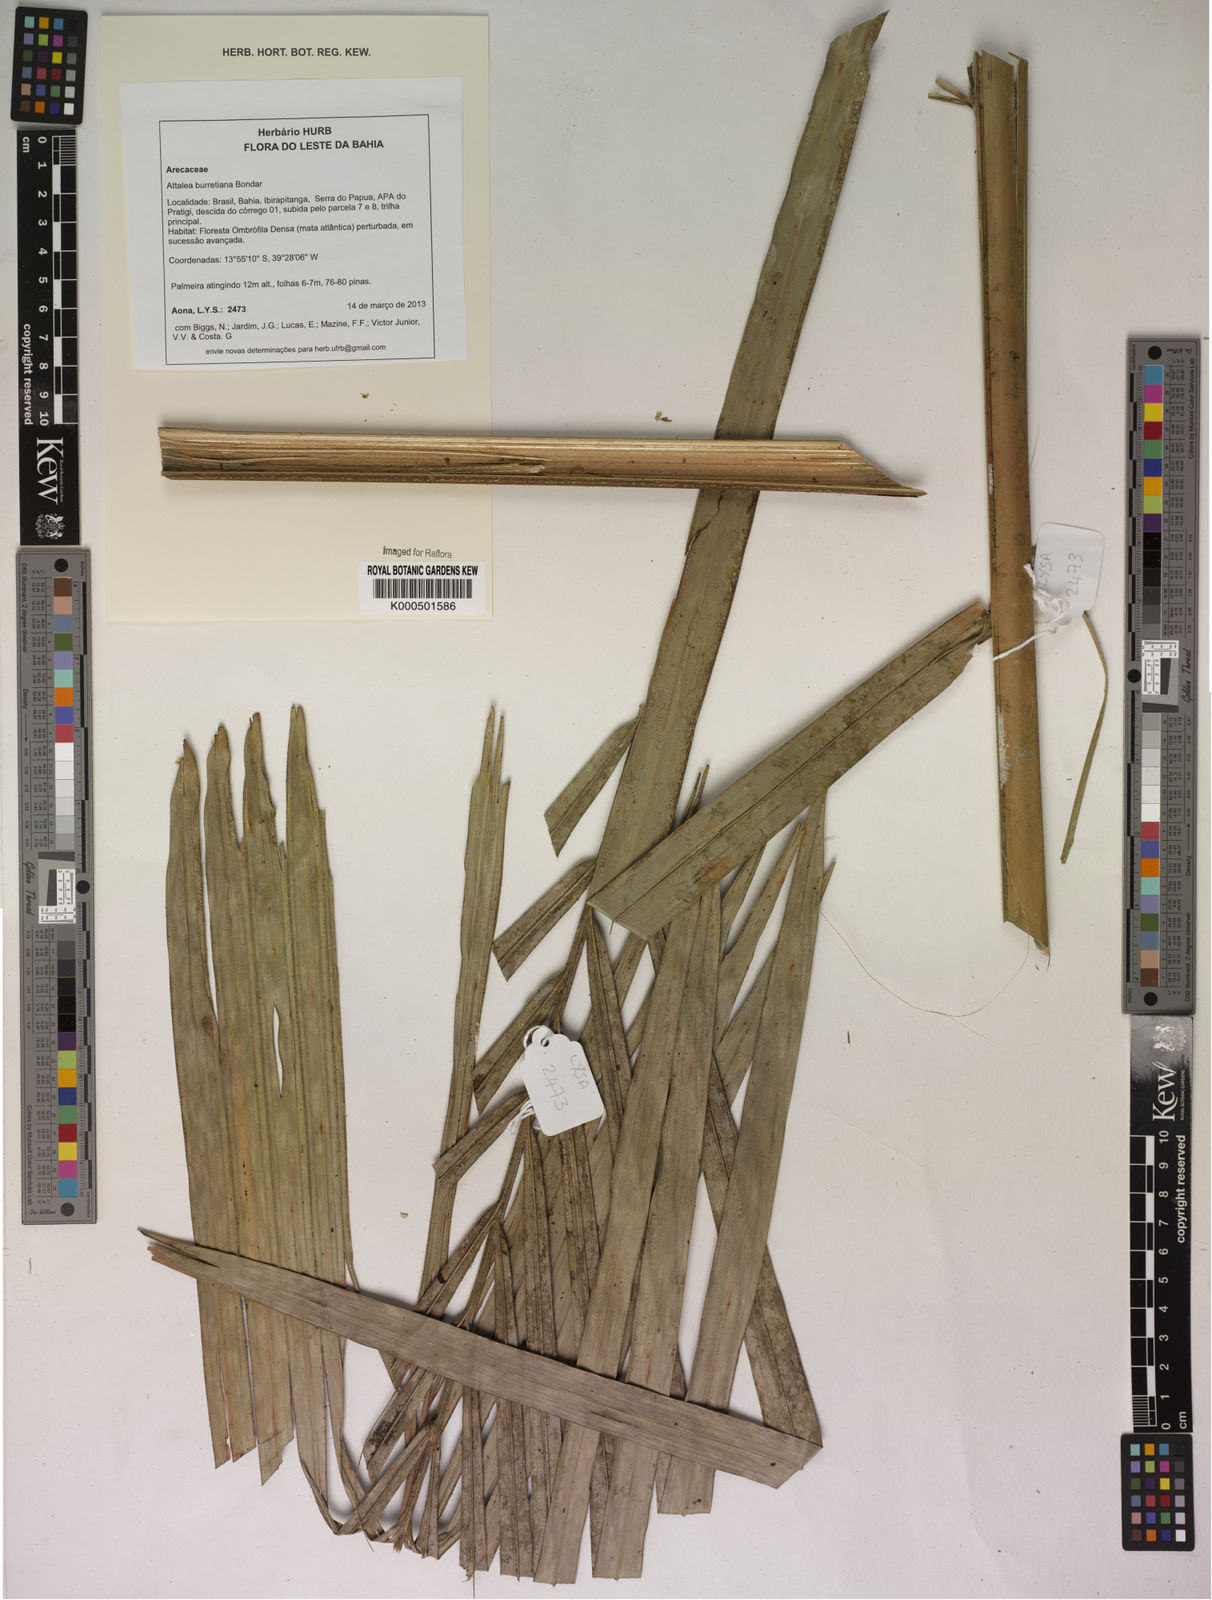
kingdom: Plantae
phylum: Tracheophyta
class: Liliopsida
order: Arecales
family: Arecaceae
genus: Attalea
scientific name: Attalea
